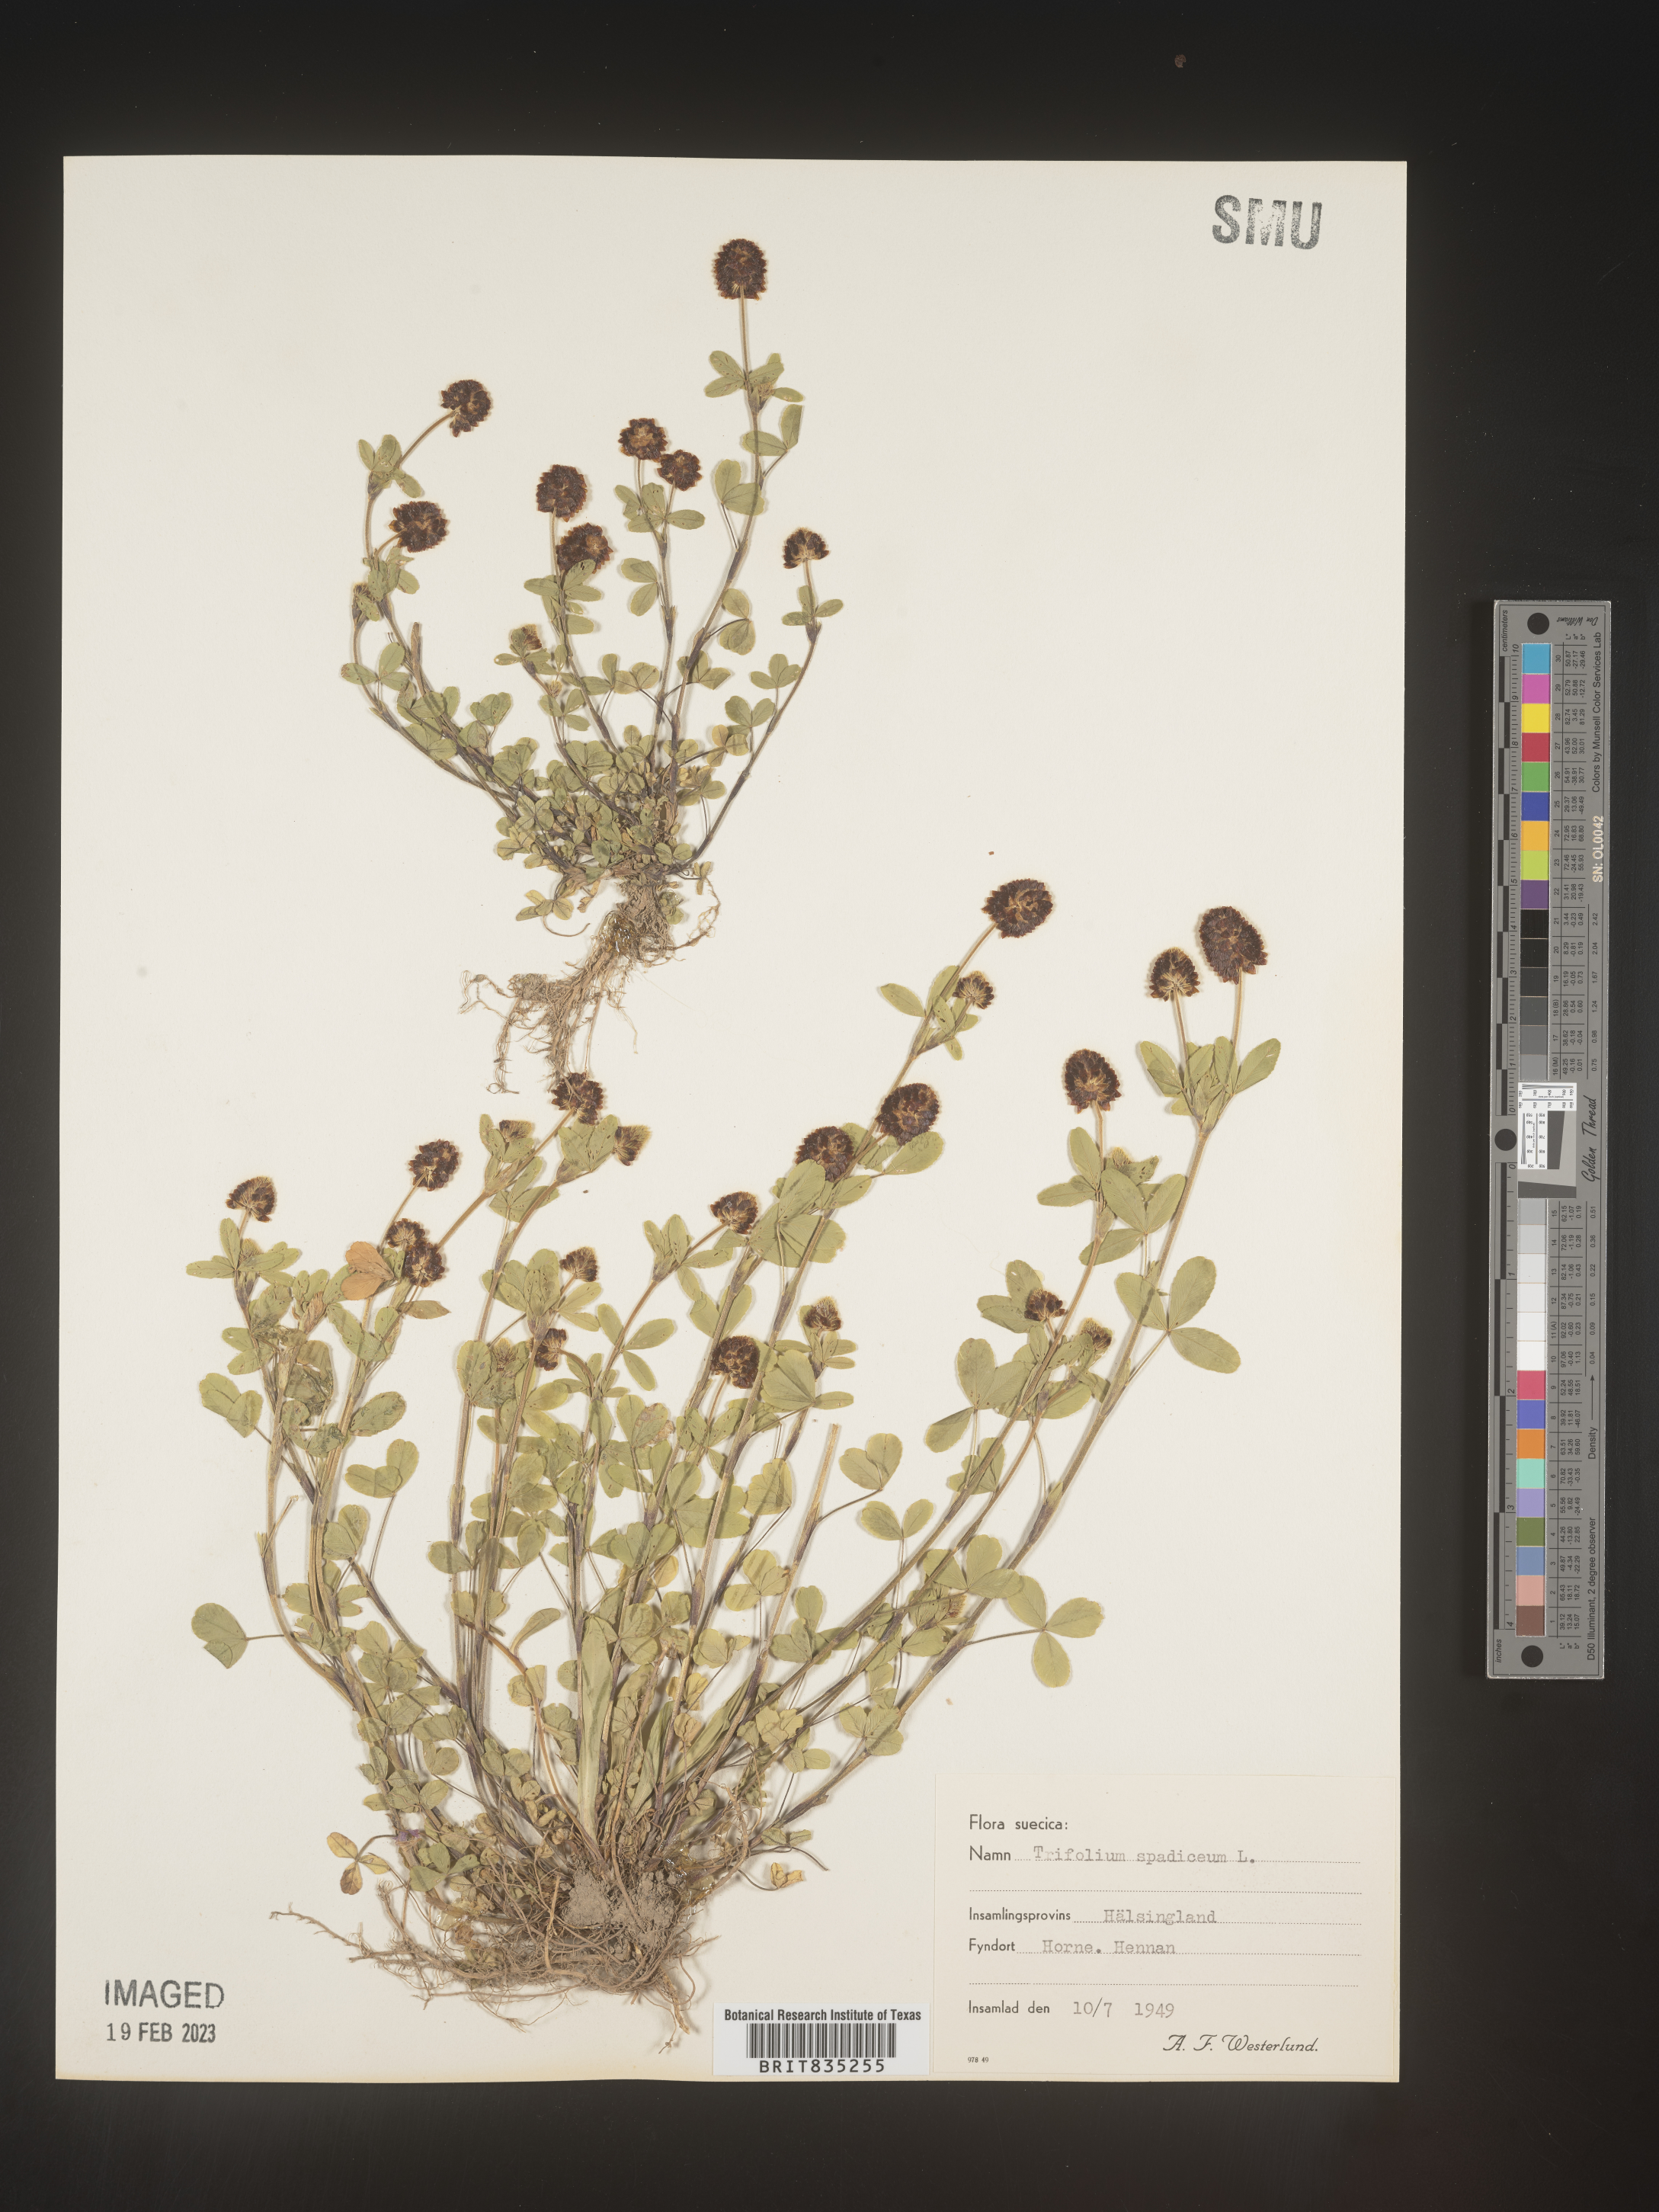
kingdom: Plantae
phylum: Tracheophyta
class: Magnoliopsida
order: Fabales
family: Fabaceae
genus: Trifolium
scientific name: Trifolium
